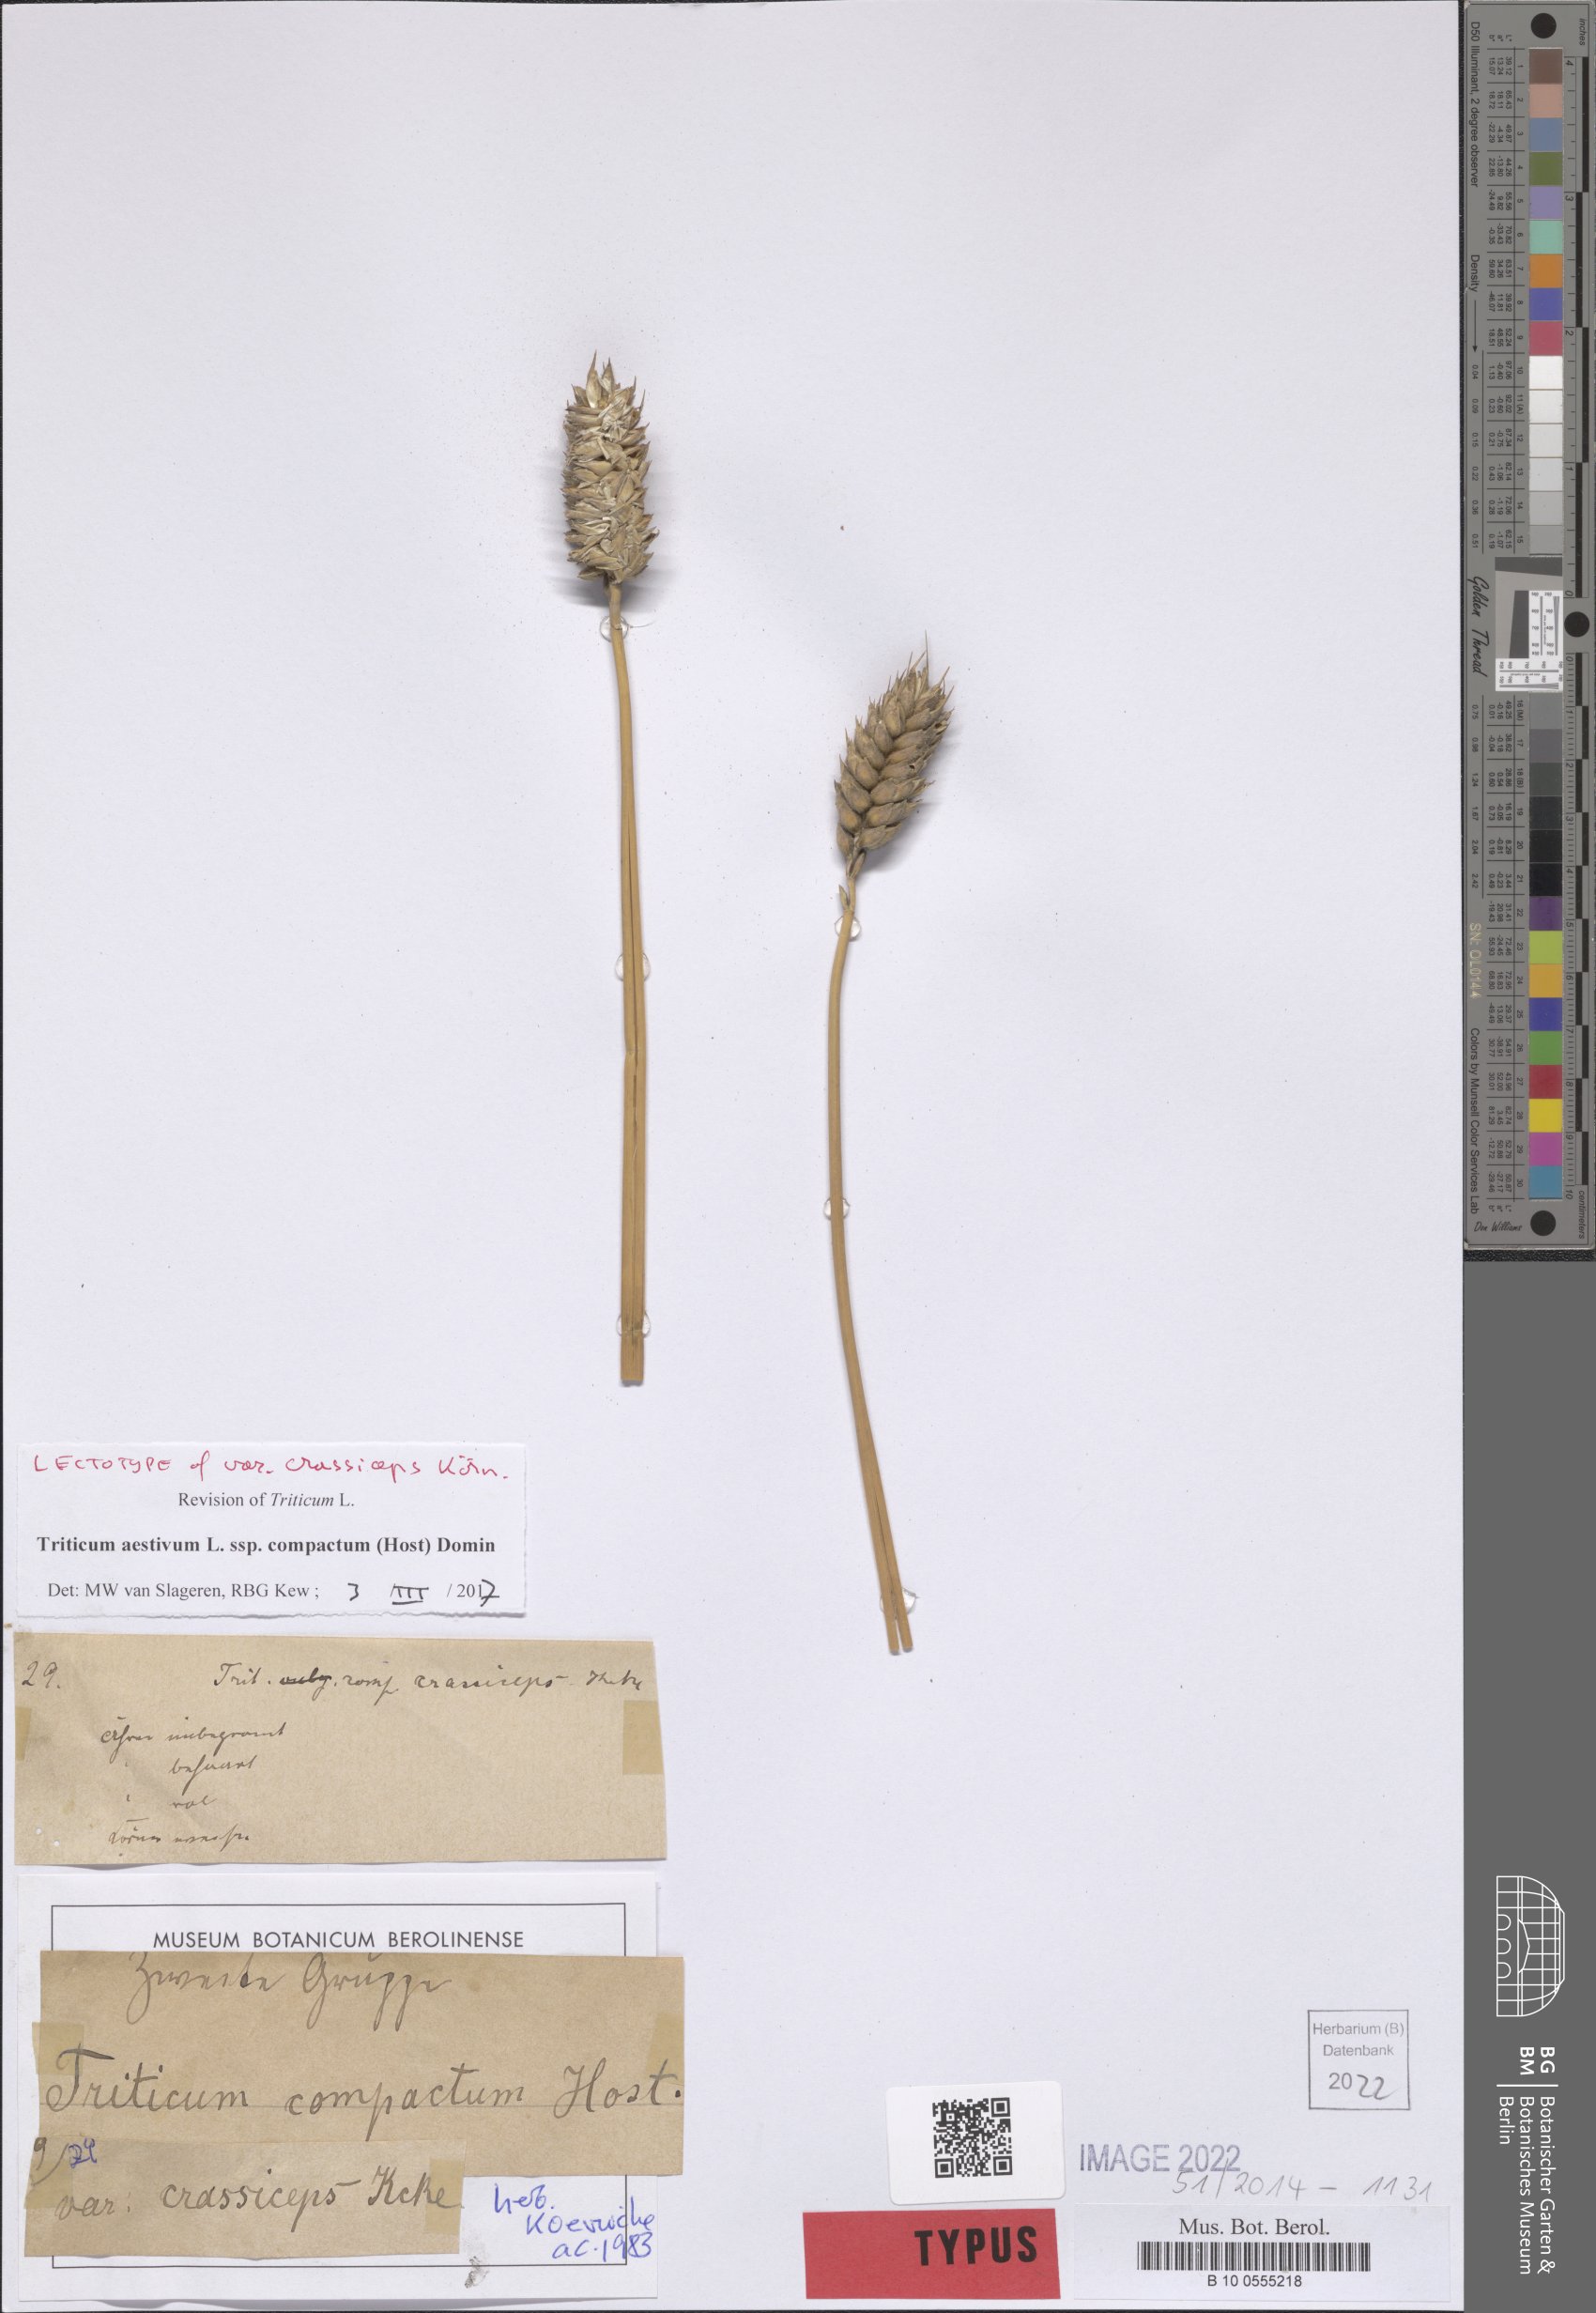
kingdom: Plantae
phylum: Tracheophyta
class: Liliopsida
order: Poales
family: Poaceae
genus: Triticum
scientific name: Triticum aestivum
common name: Common wheat
